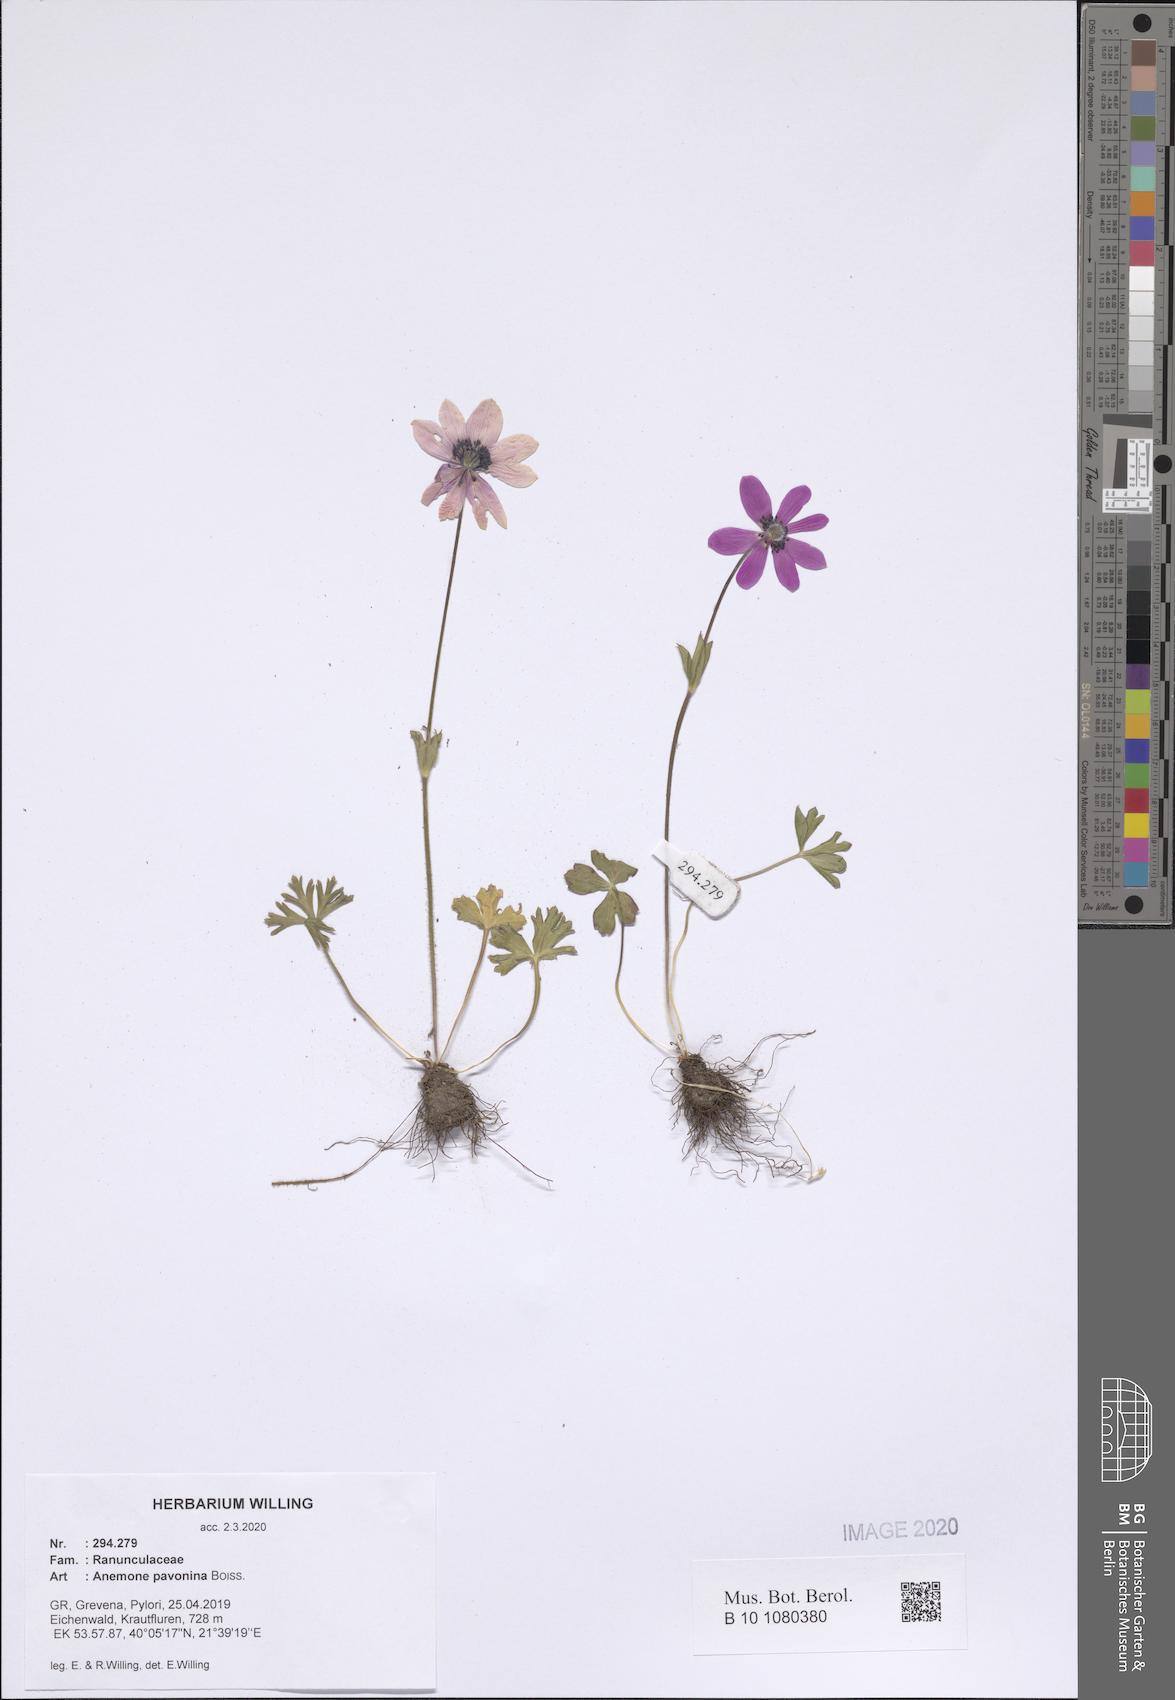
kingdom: Plantae
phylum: Tracheophyta
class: Magnoliopsida
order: Ranunculales
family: Ranunculaceae
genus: Anemone
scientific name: Anemone pavonina
